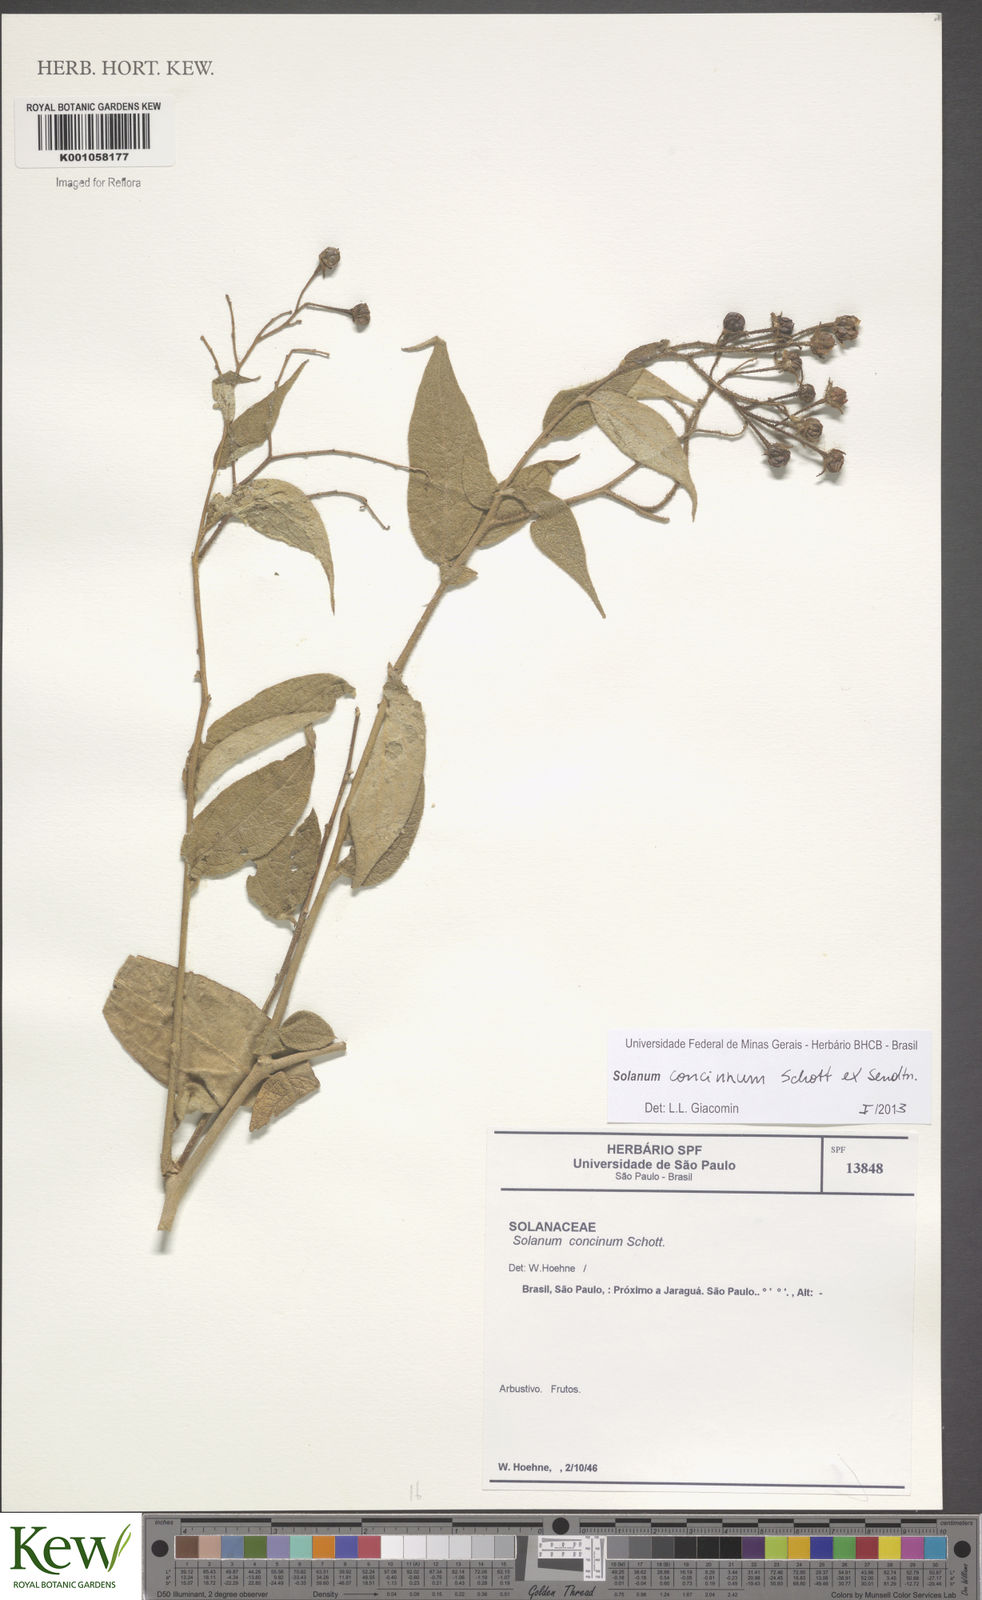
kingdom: Plantae
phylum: Tracheophyta
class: Magnoliopsida
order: Solanales
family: Solanaceae
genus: Solanum
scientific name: Solanum concinnum
